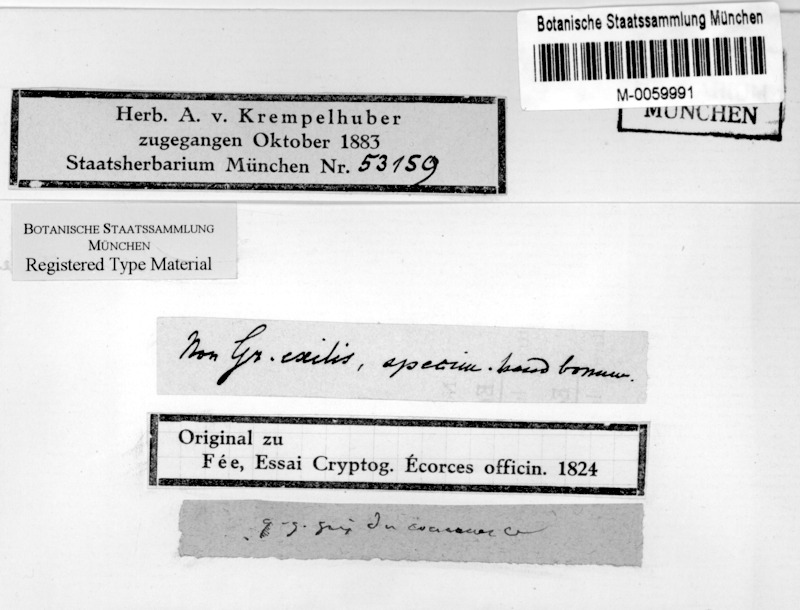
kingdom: Fungi
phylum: Ascomycota
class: Lecanoromycetes
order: Ostropales
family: Graphidaceae
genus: Phaeographina
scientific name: Phaeographina
